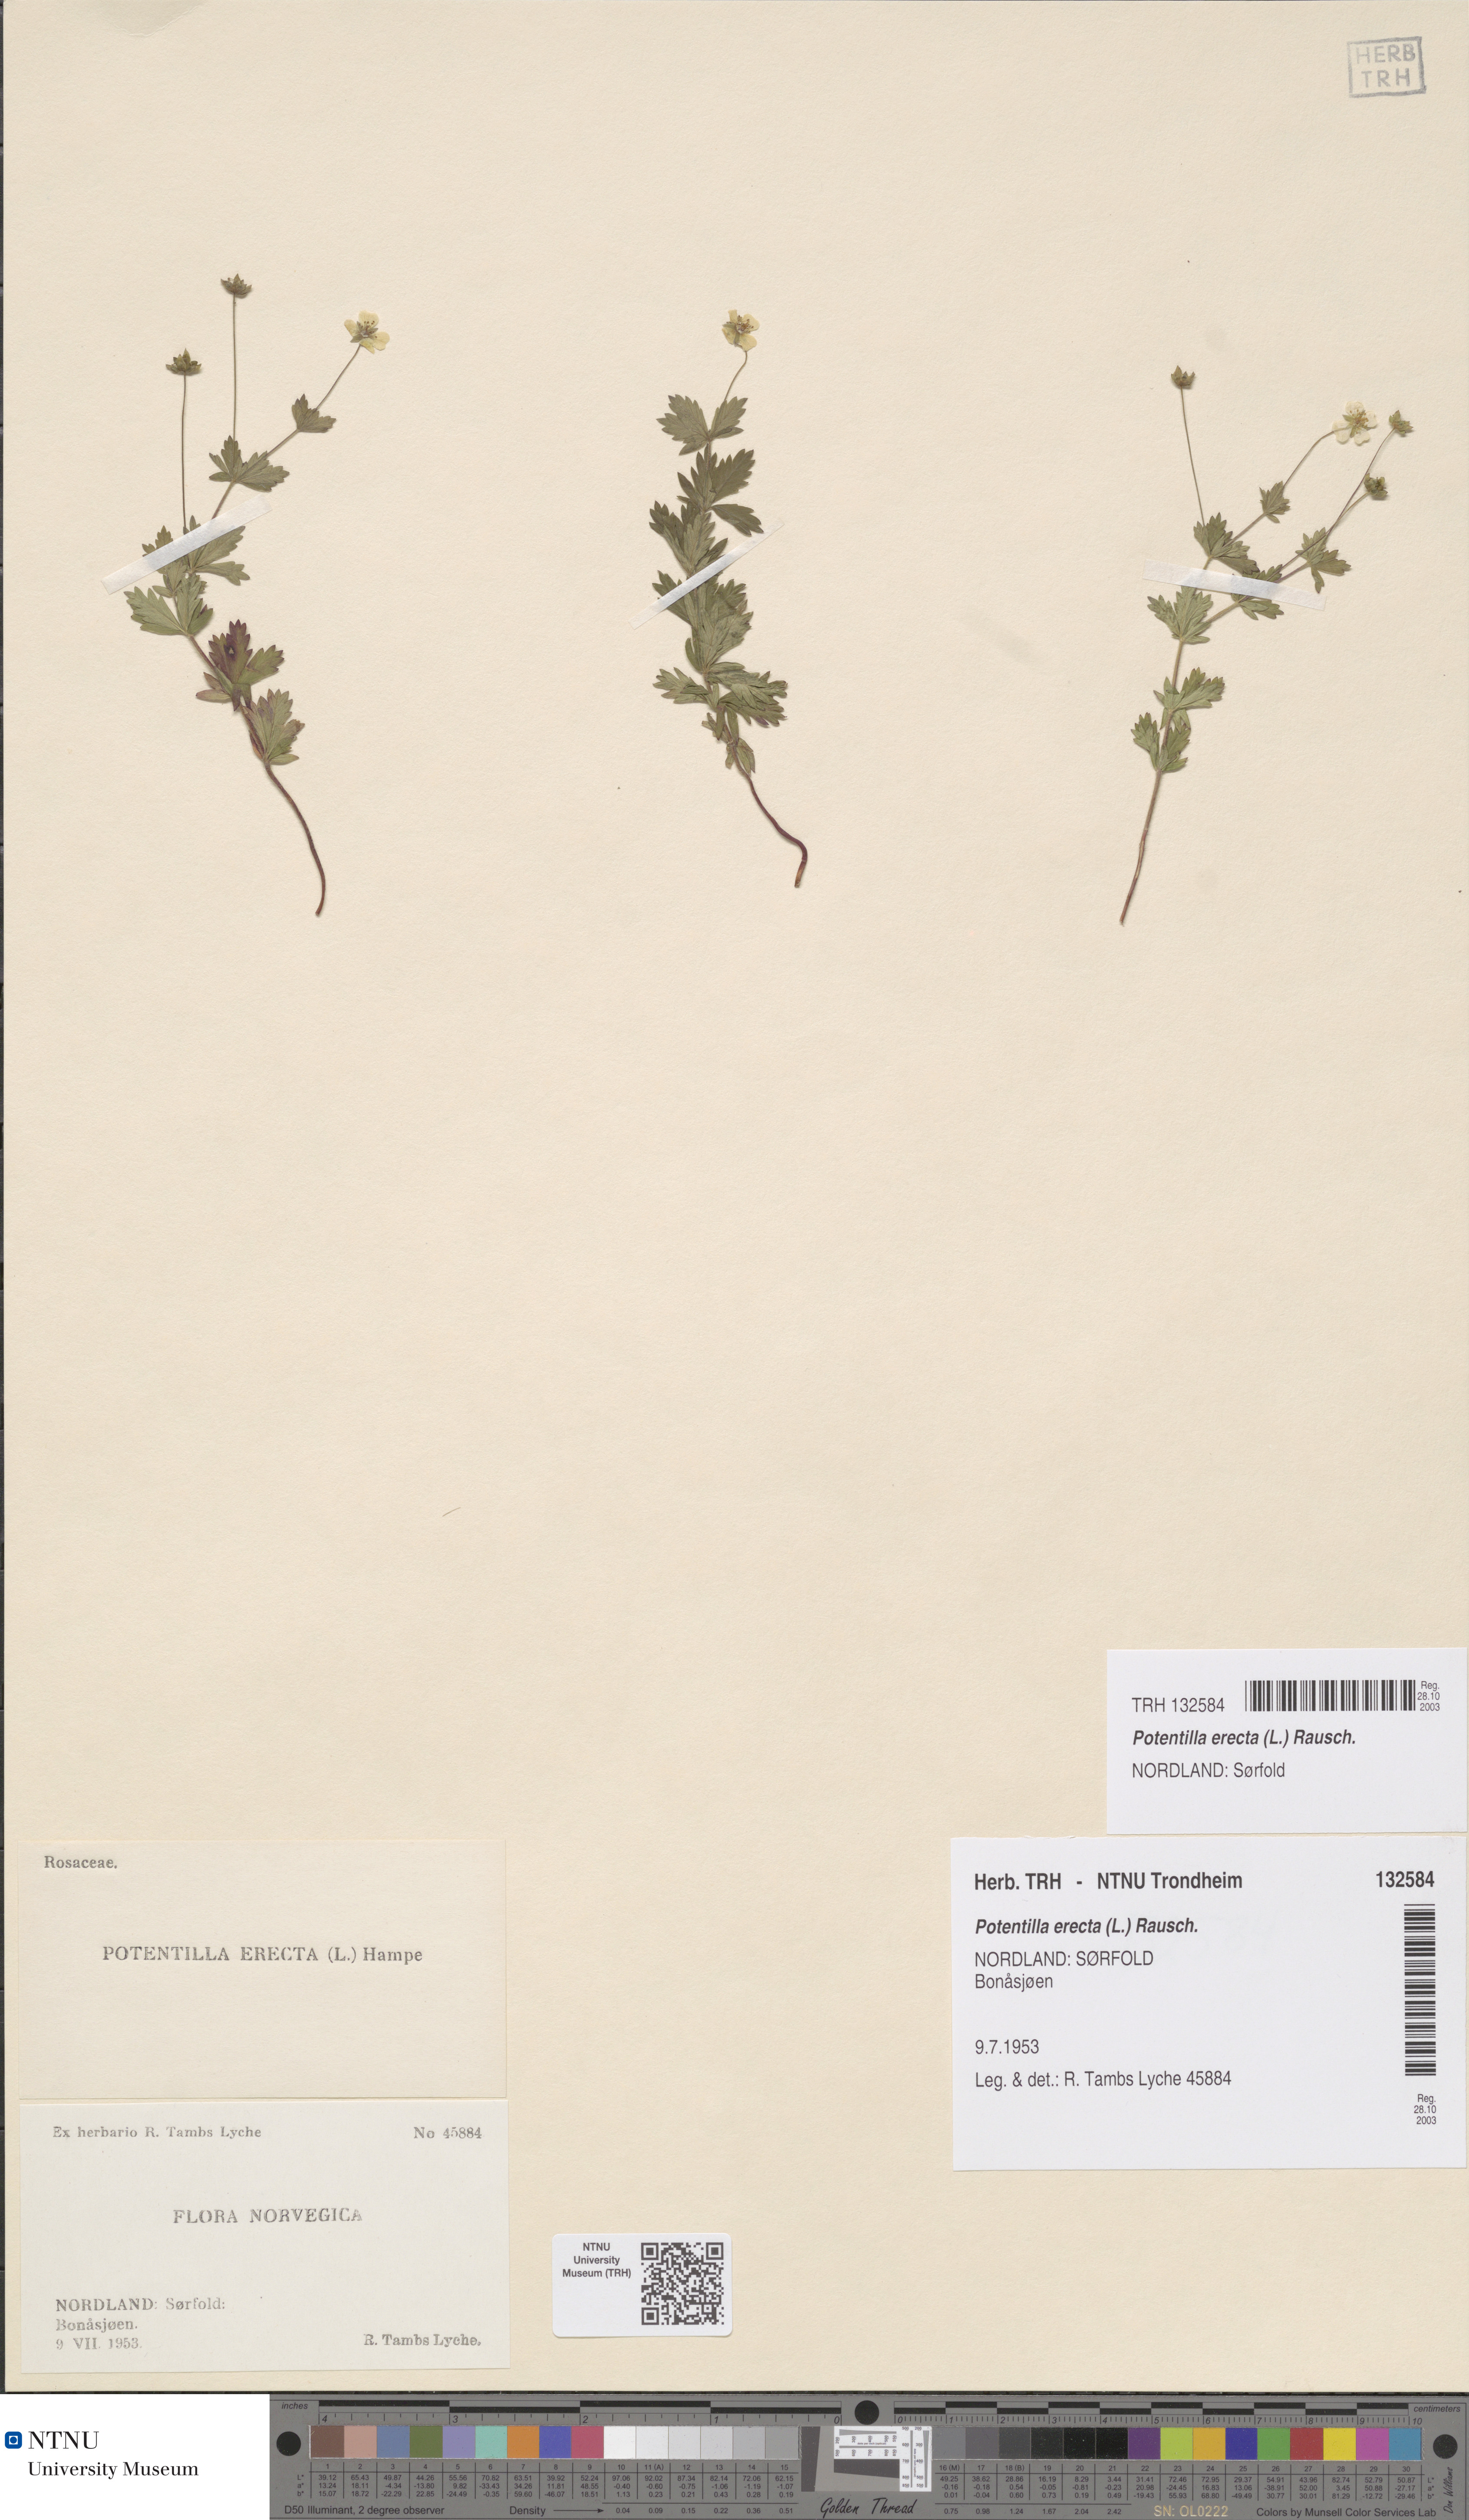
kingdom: Plantae
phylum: Tracheophyta
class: Magnoliopsida
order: Rosales
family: Rosaceae
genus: Potentilla
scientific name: Potentilla erecta
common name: Tormentil
